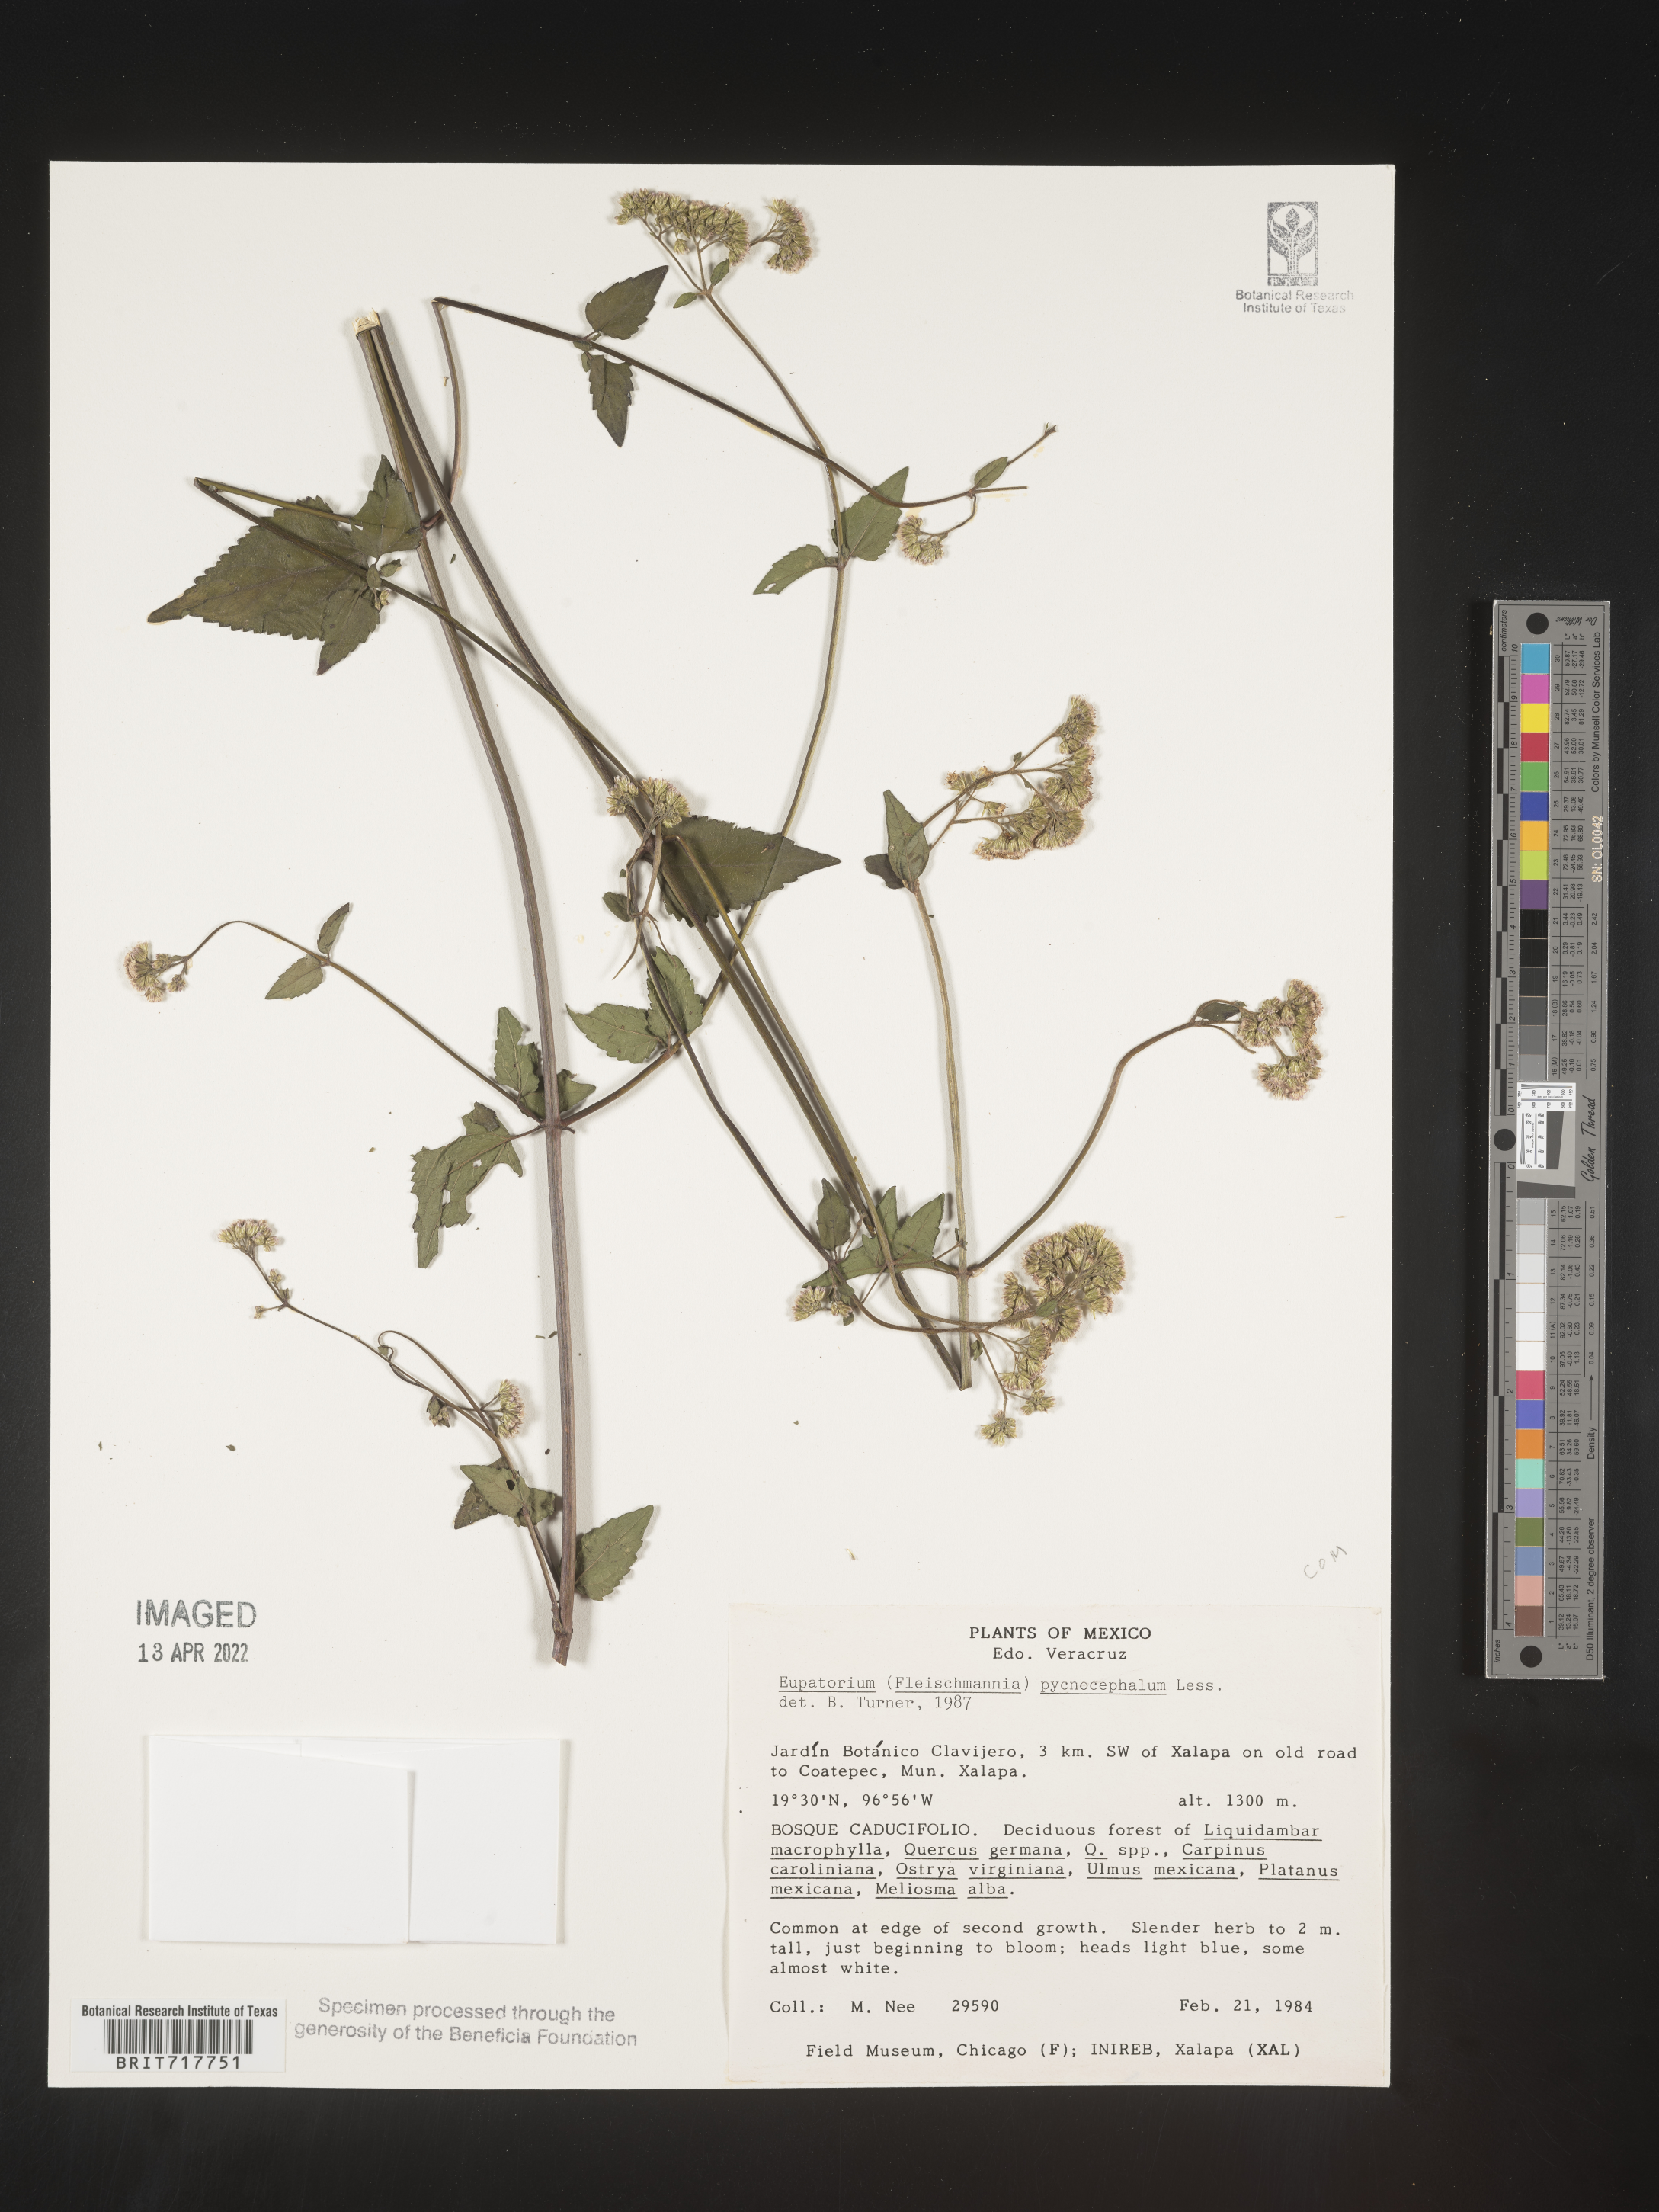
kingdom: Plantae
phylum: Tracheophyta
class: Magnoliopsida
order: Asterales
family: Asteraceae
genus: Fleischmannia
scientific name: Fleischmannia pycnocephala
